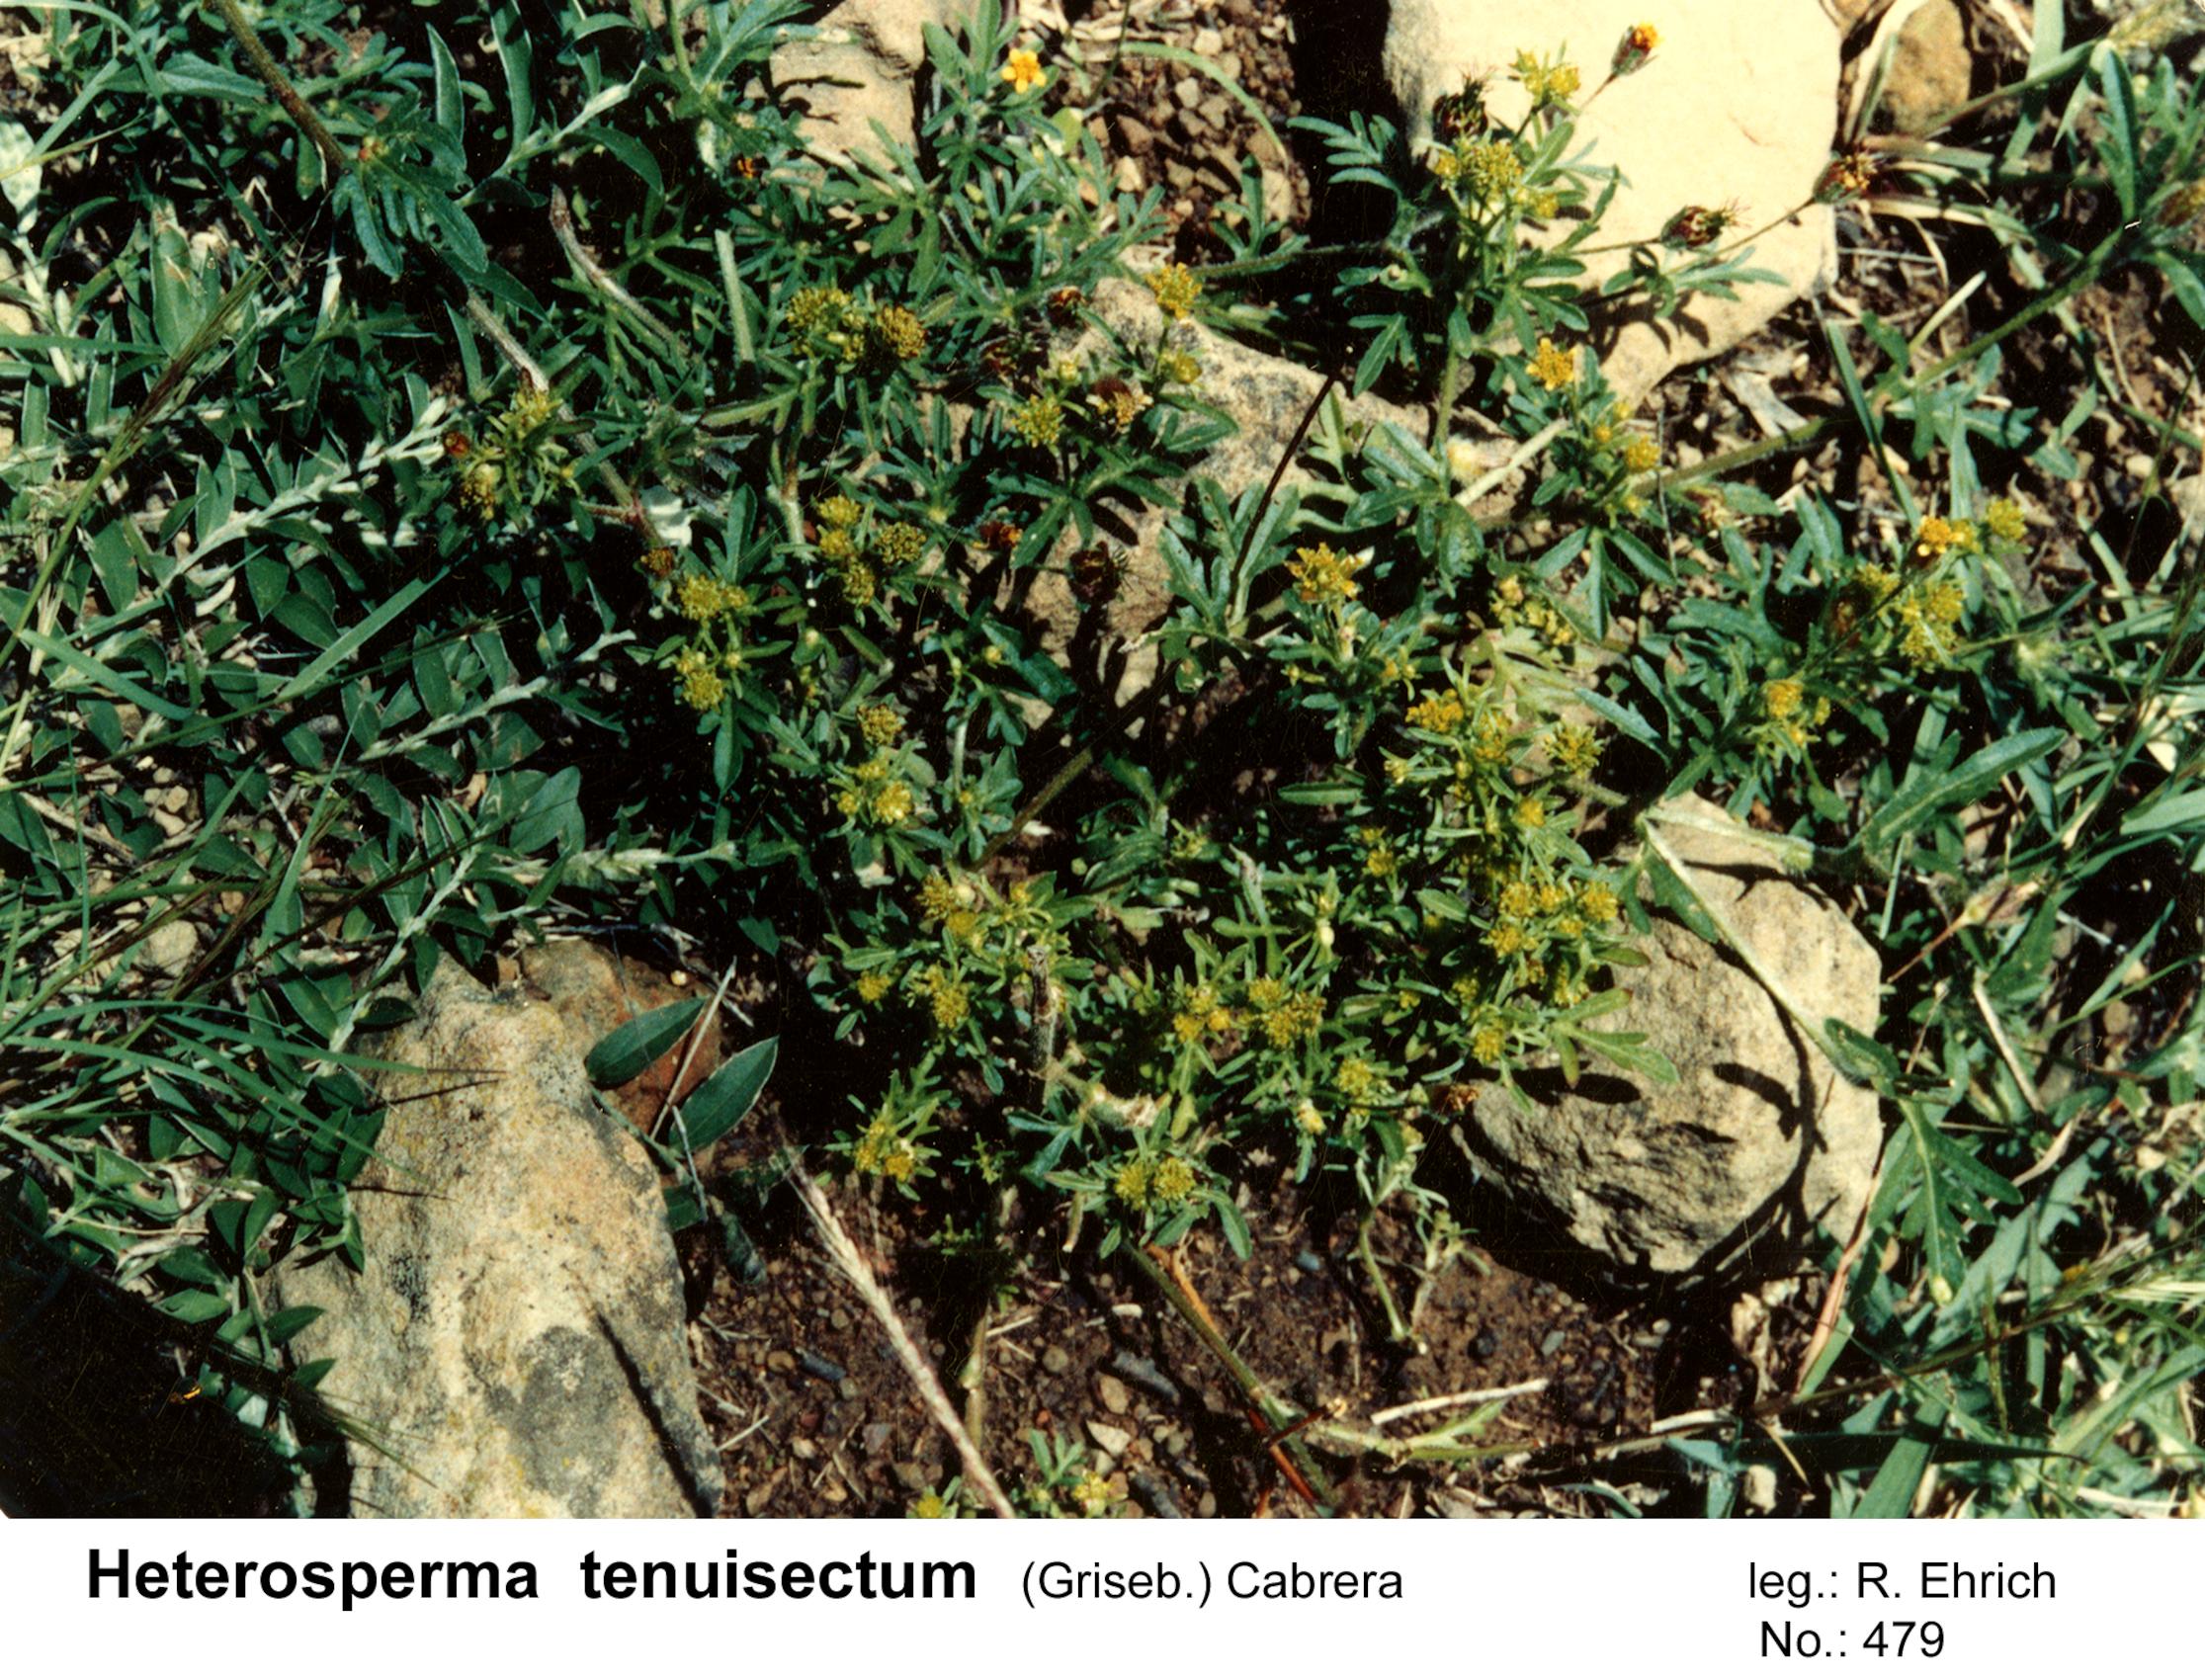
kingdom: Plantae
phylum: Tracheophyta
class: Magnoliopsida
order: Asterales
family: Asteraceae
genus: Heterosperma
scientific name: Heterosperma tenuisectum
